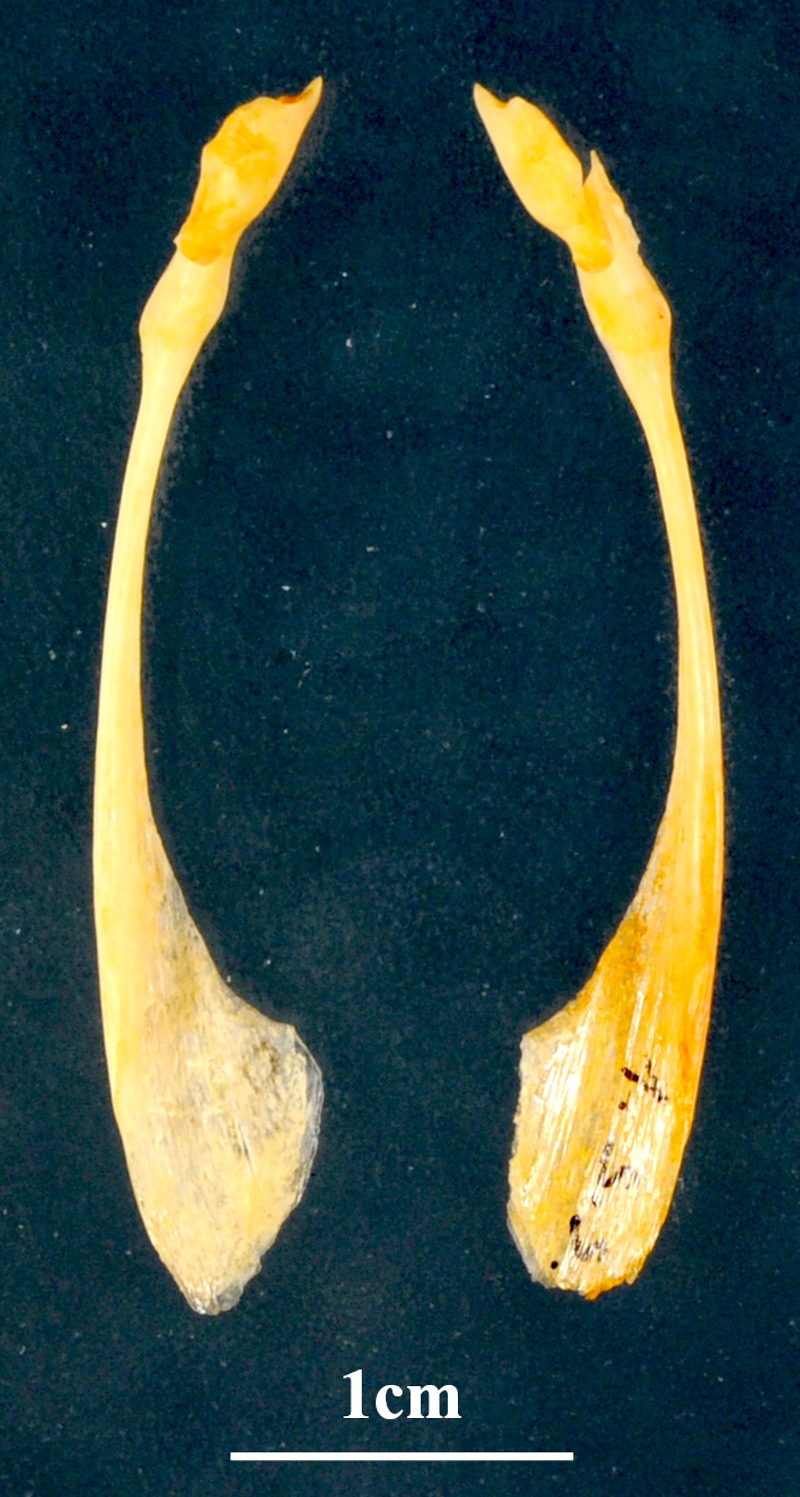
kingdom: Animalia
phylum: Chordata
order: Perciformes
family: Sphyraenidae
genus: Sphyraena
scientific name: Sphyraena sphyraena
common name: European barracuda
